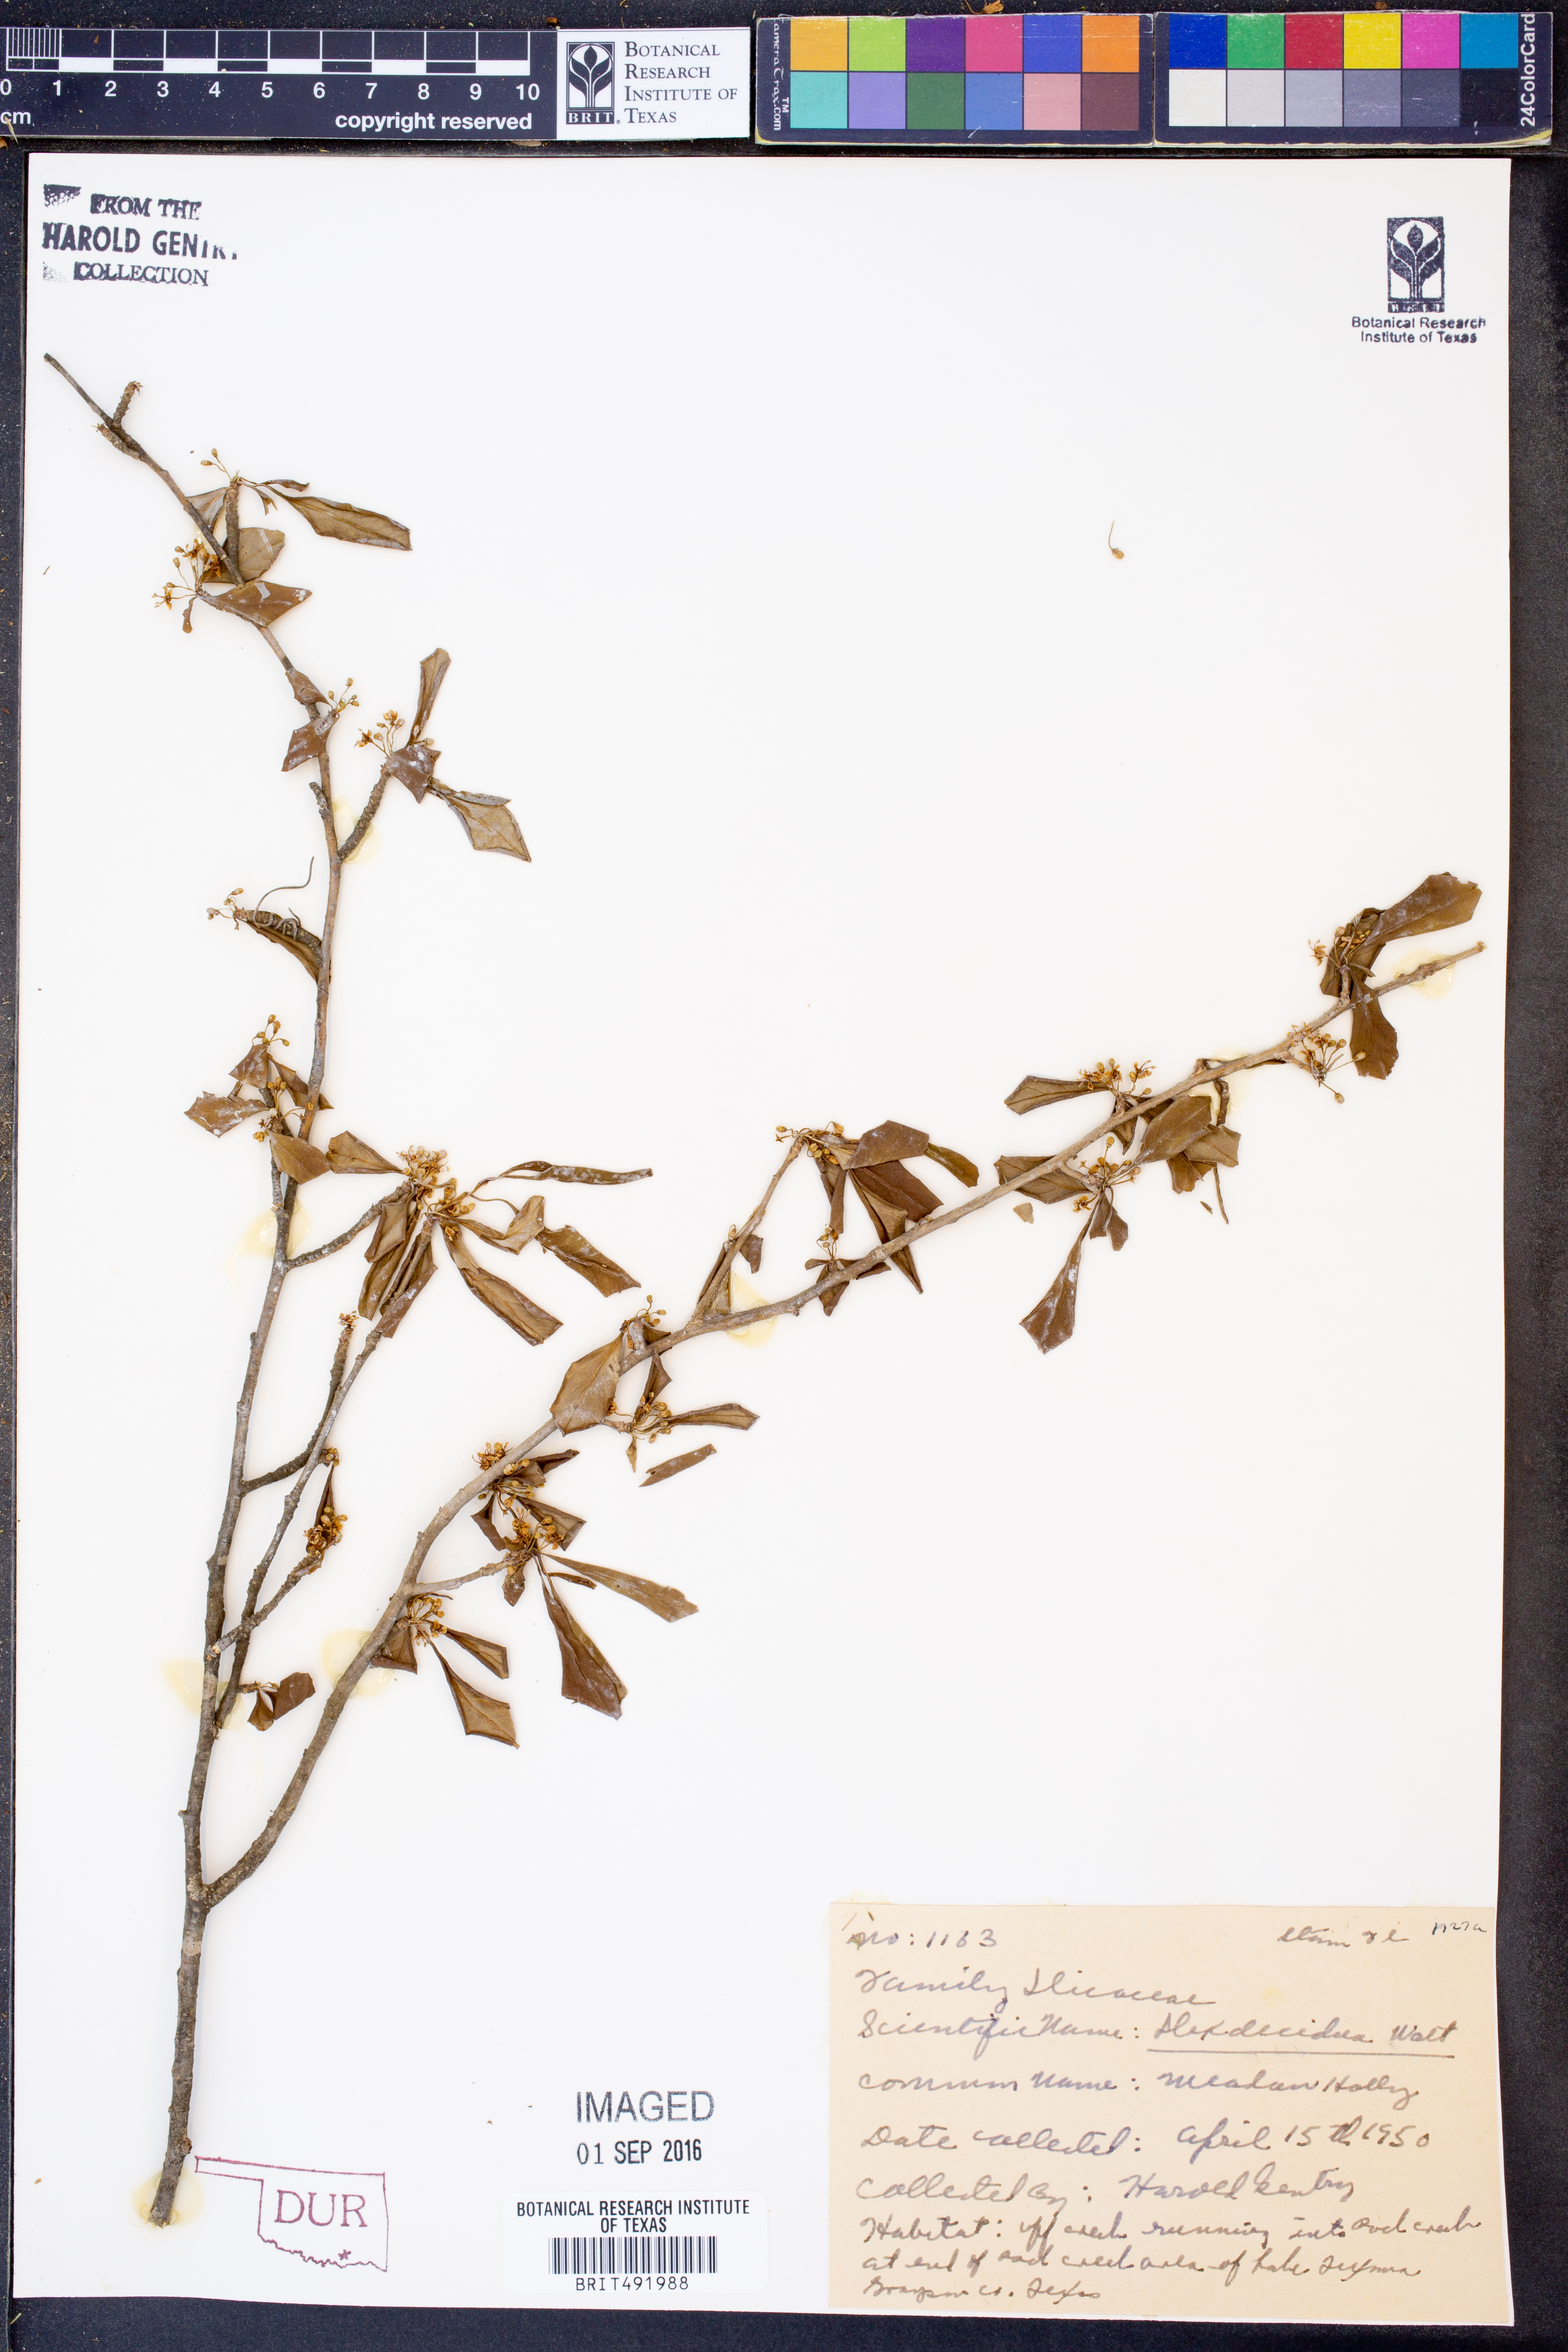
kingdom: Plantae
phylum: Tracheophyta
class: Magnoliopsida
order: Aquifoliales
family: Aquifoliaceae
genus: Ilex
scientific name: Ilex decidua
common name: Possum-haw
